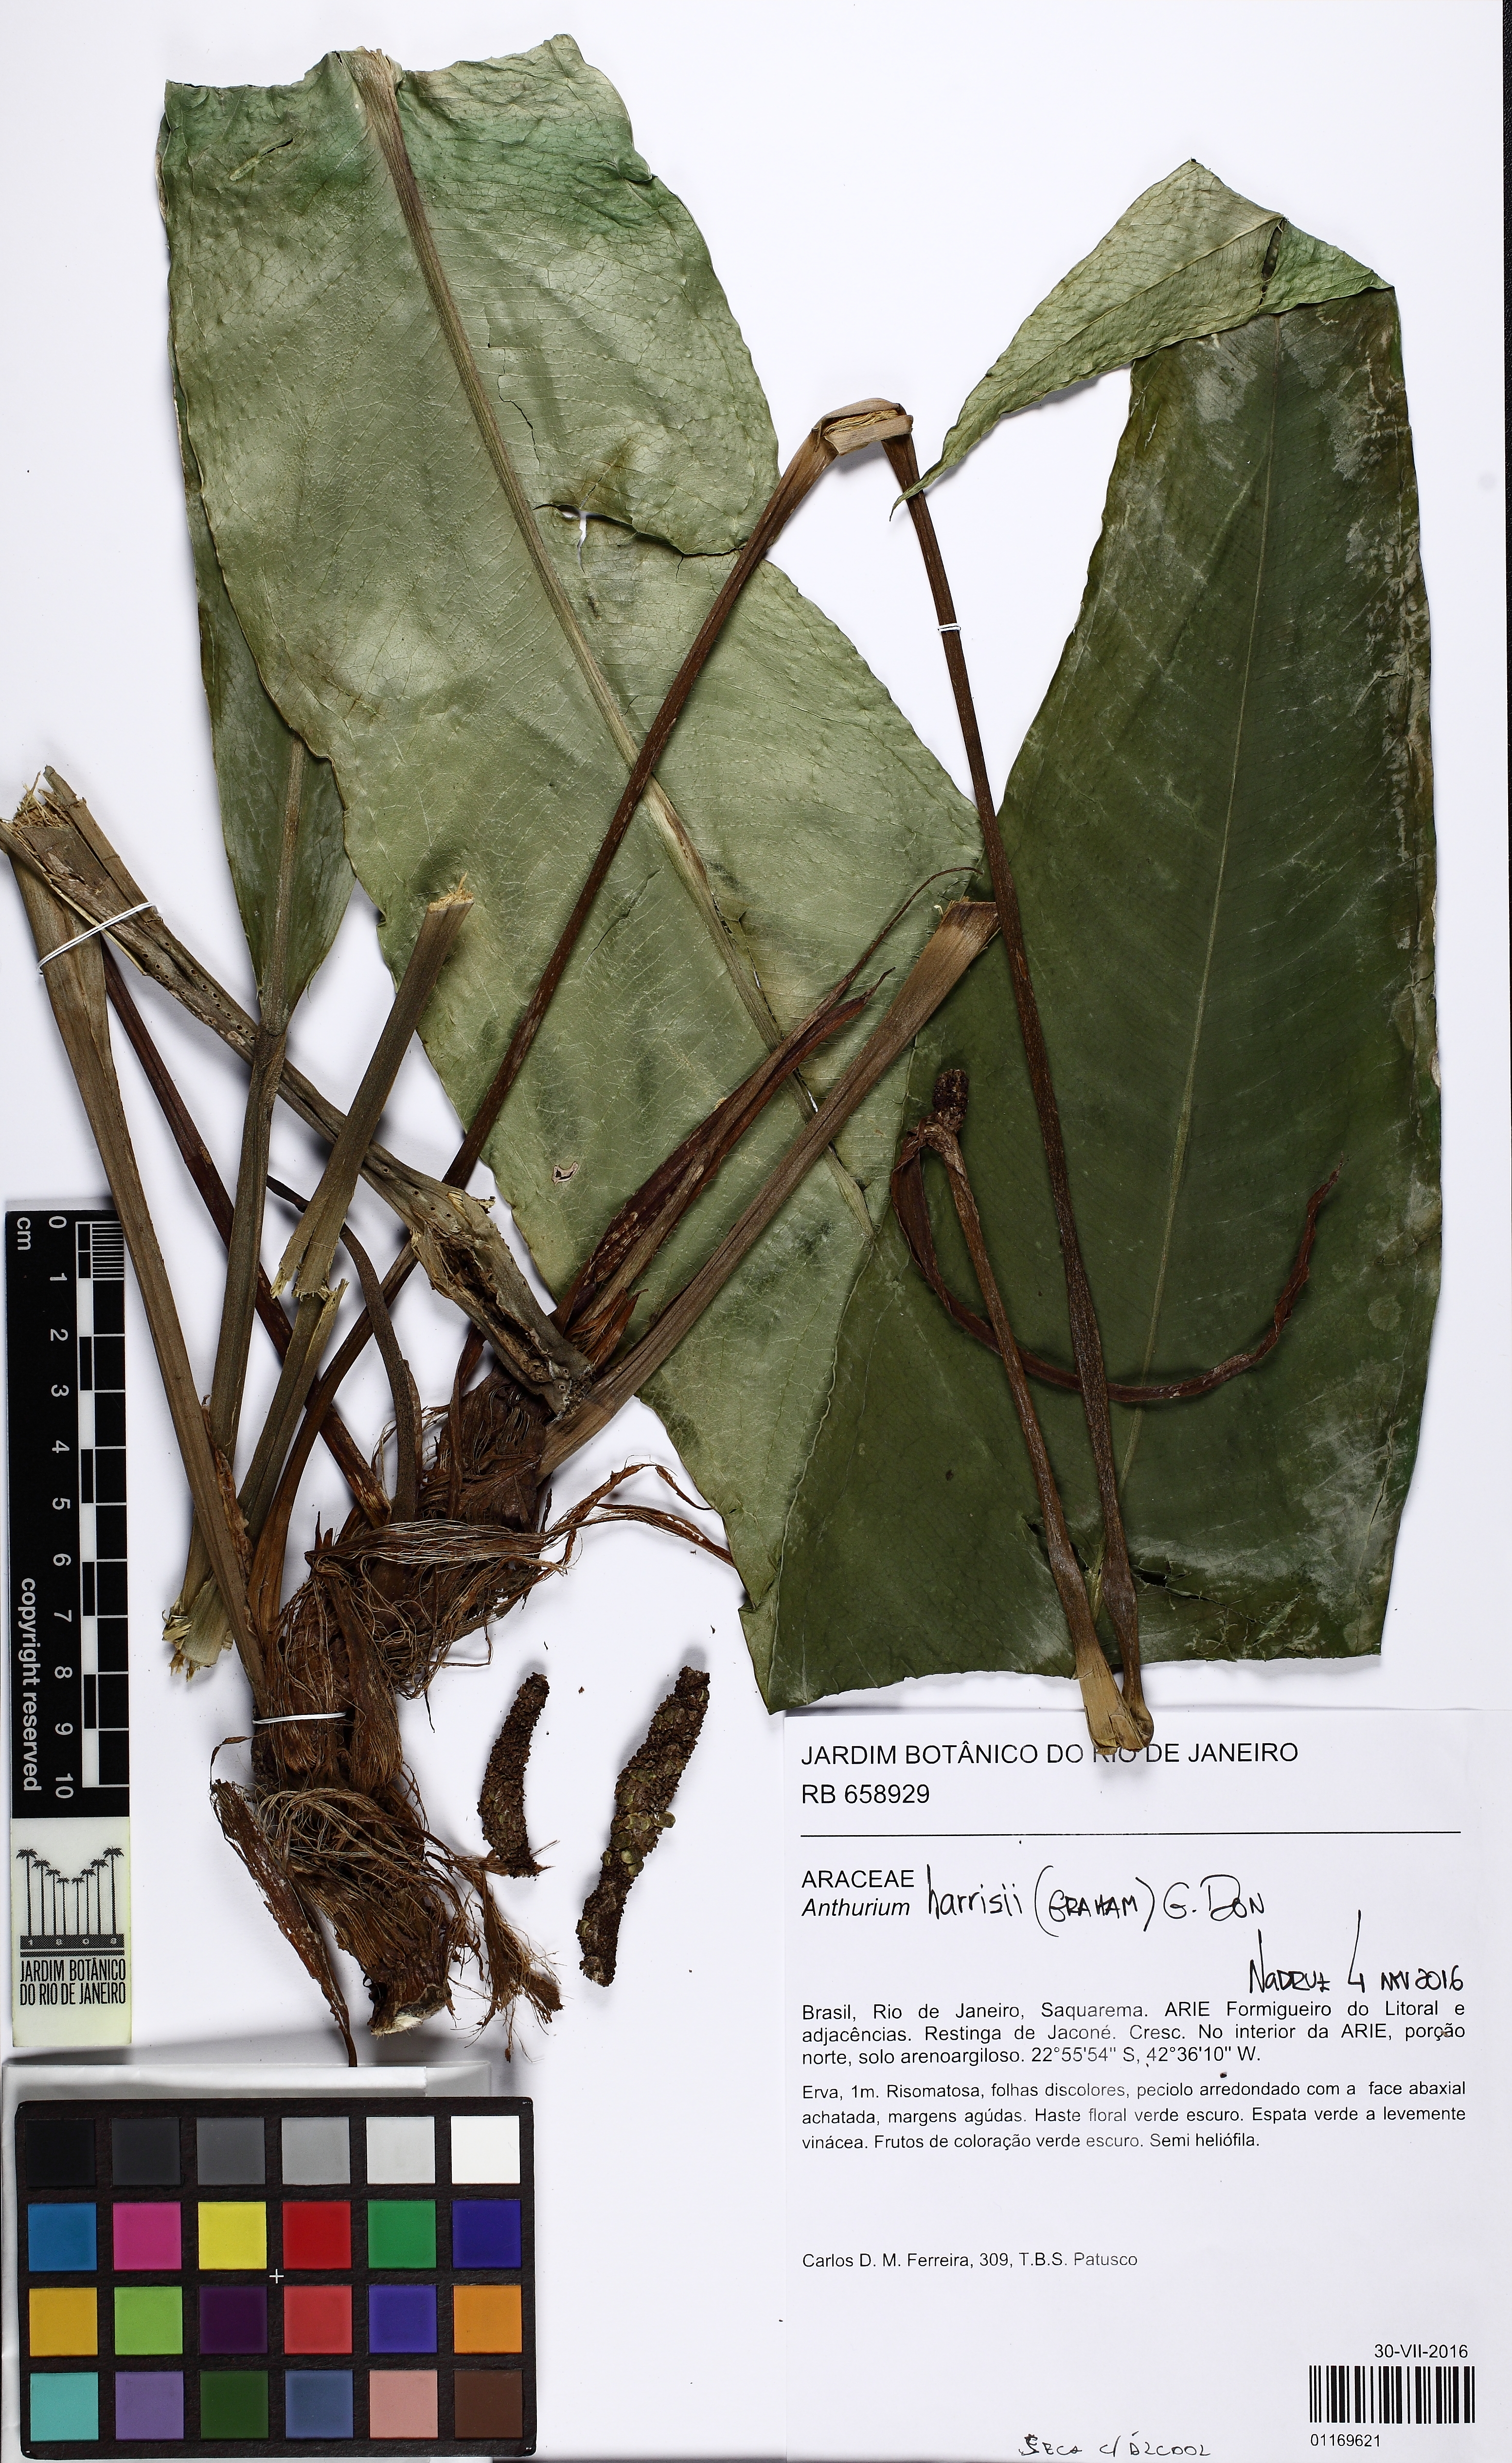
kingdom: Plantae
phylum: Tracheophyta
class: Liliopsida
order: Alismatales
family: Araceae
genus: Anthurium
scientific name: Anthurium harrisii
